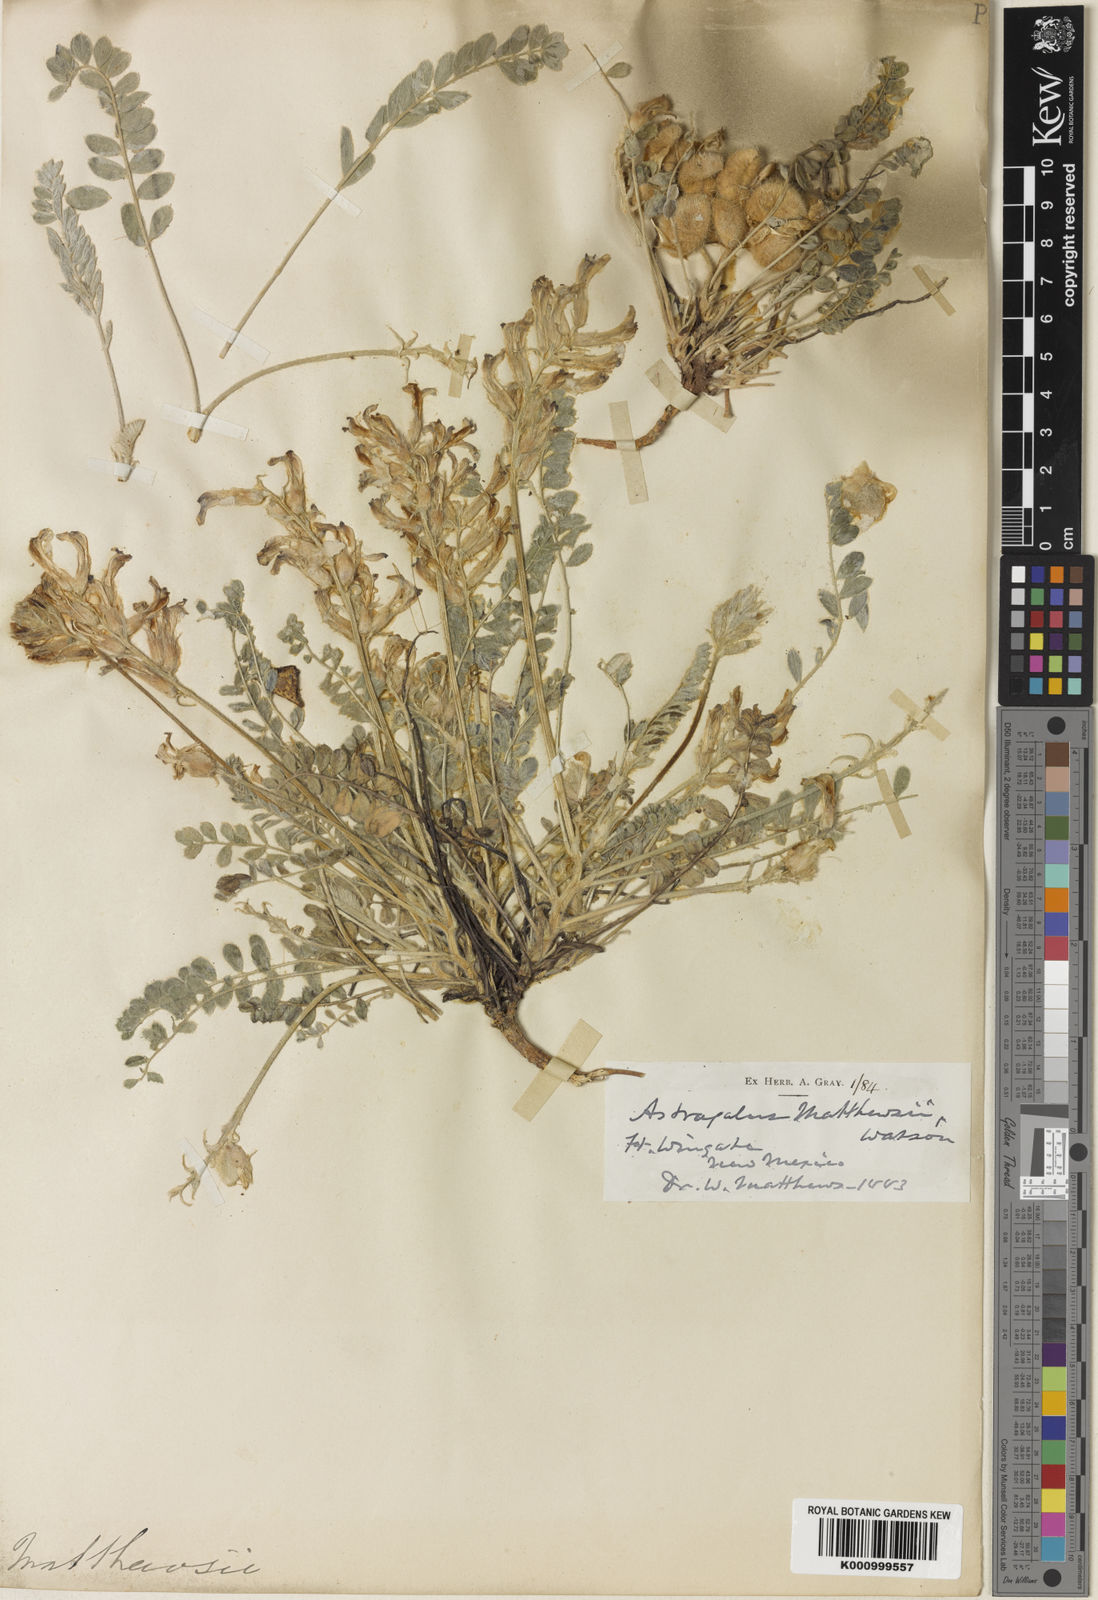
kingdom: Plantae
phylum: Tracheophyta
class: Magnoliopsida
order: Fabales
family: Fabaceae
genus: Astragalus
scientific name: Astragalus mollissimus
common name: Woolly locoweed
